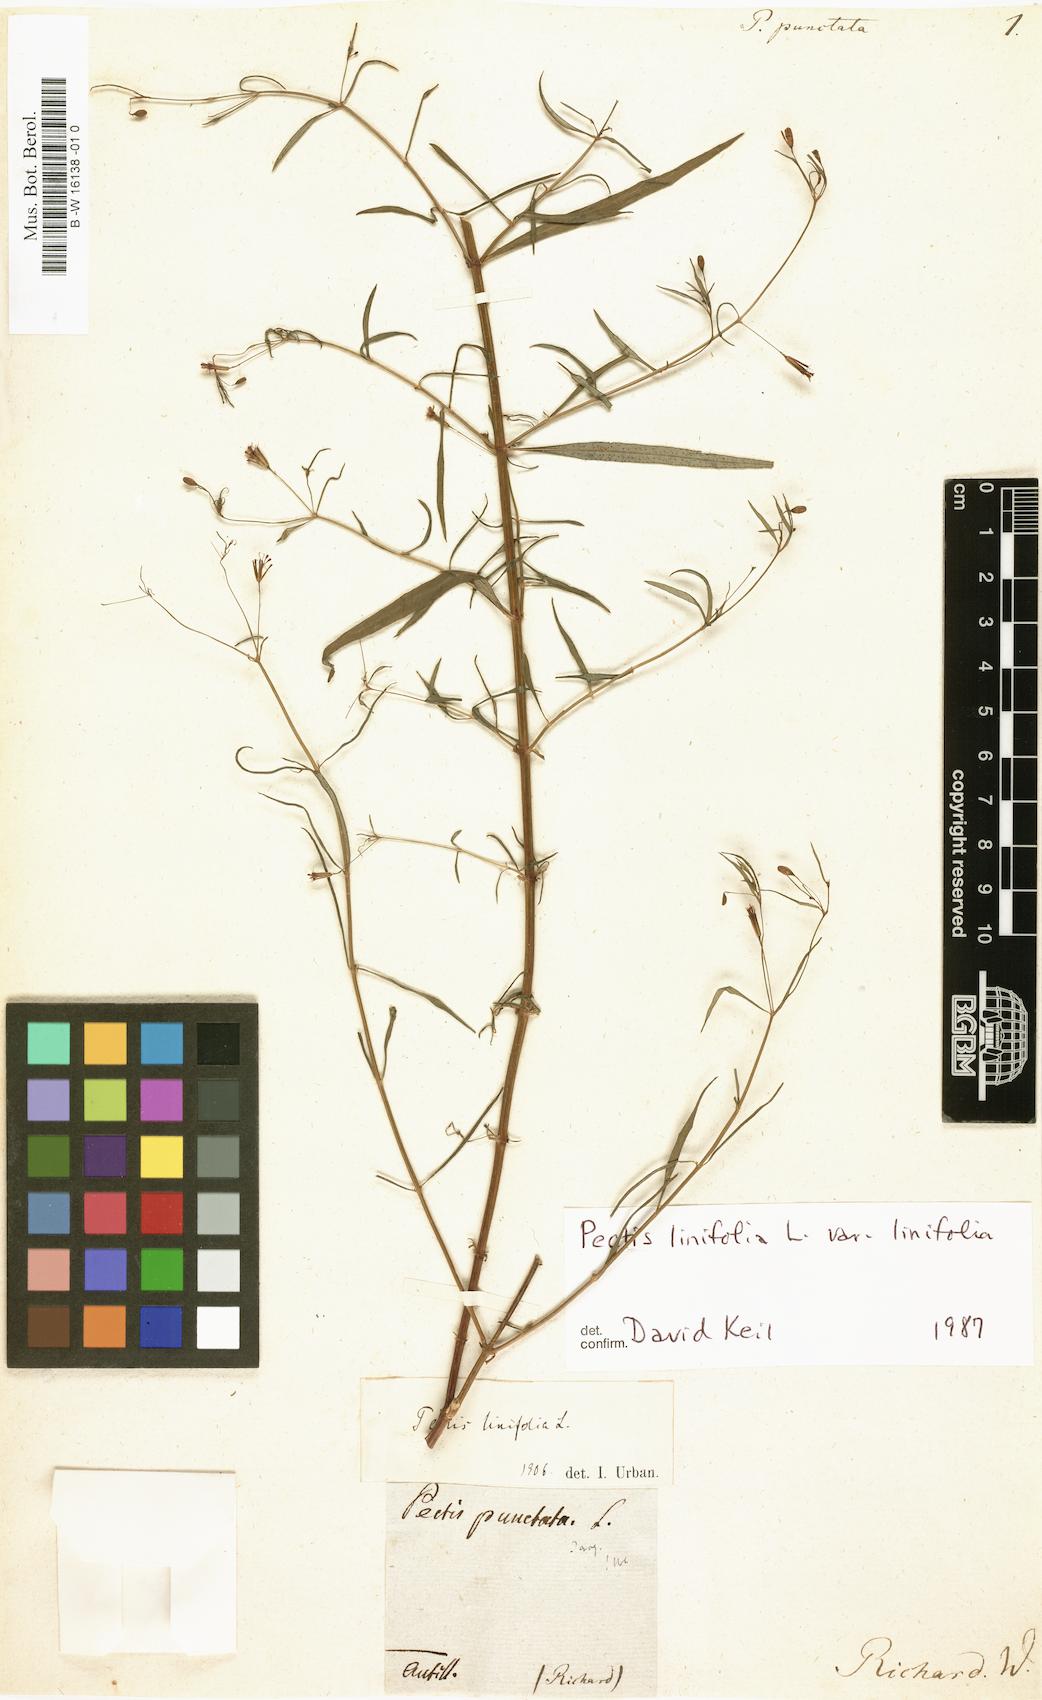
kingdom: Plantae
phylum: Tracheophyta
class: Magnoliopsida
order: Asterales
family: Asteraceae
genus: Pectis
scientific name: Pectis linifolia
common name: Romero macho
